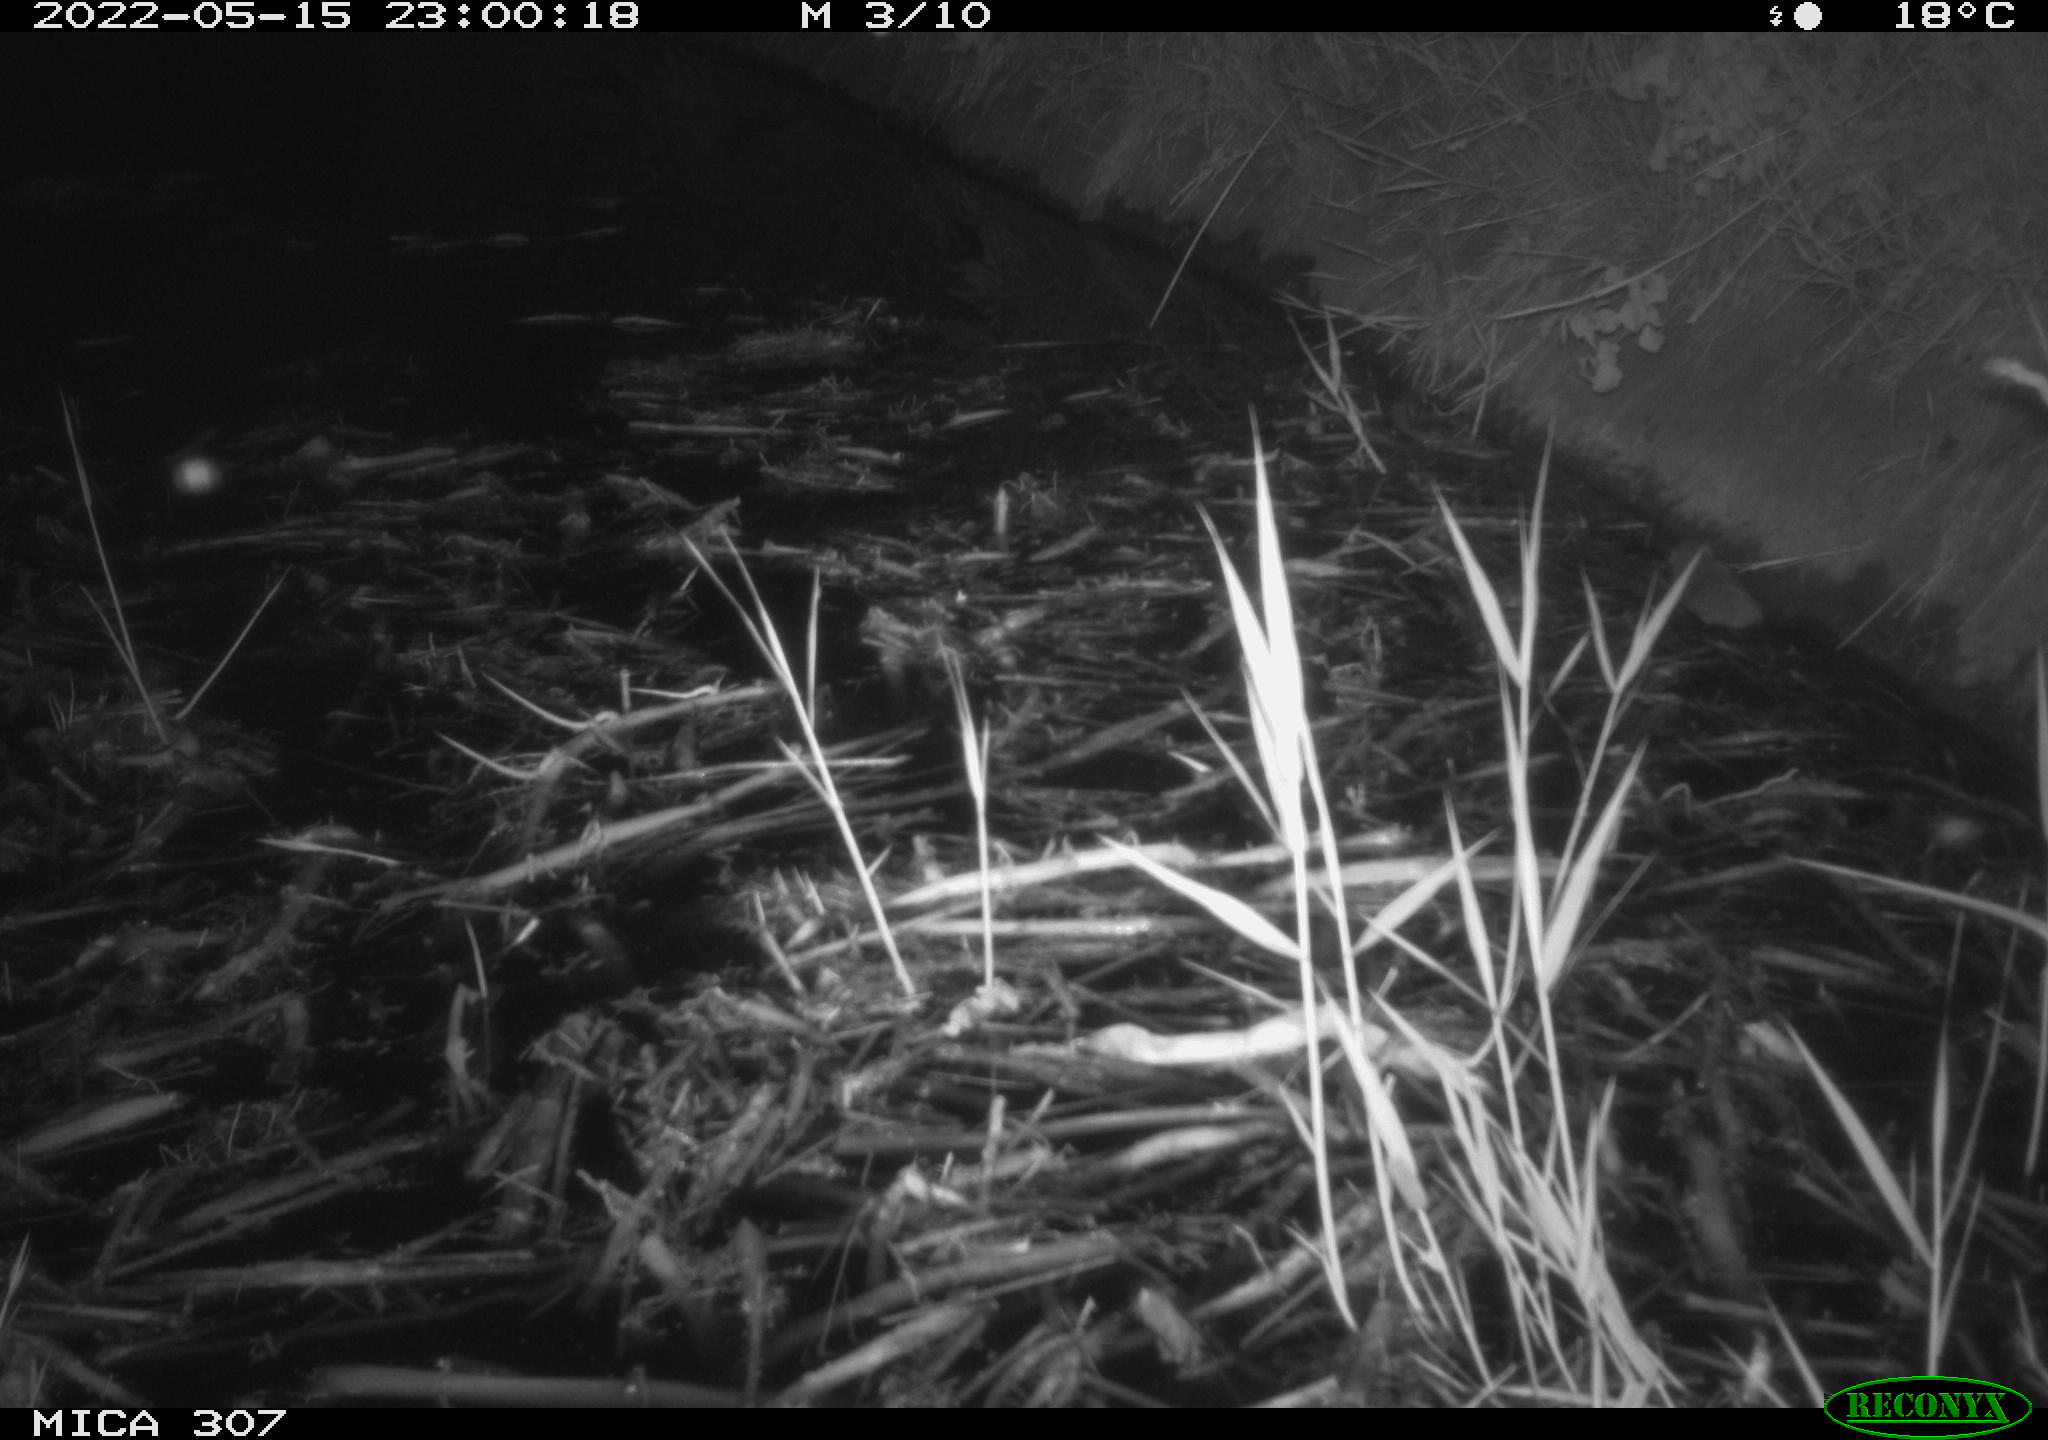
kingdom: Animalia
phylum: Chordata
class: Mammalia
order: Rodentia
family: Cricetidae
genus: Ondatra
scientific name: Ondatra zibethicus
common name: Muskrat
